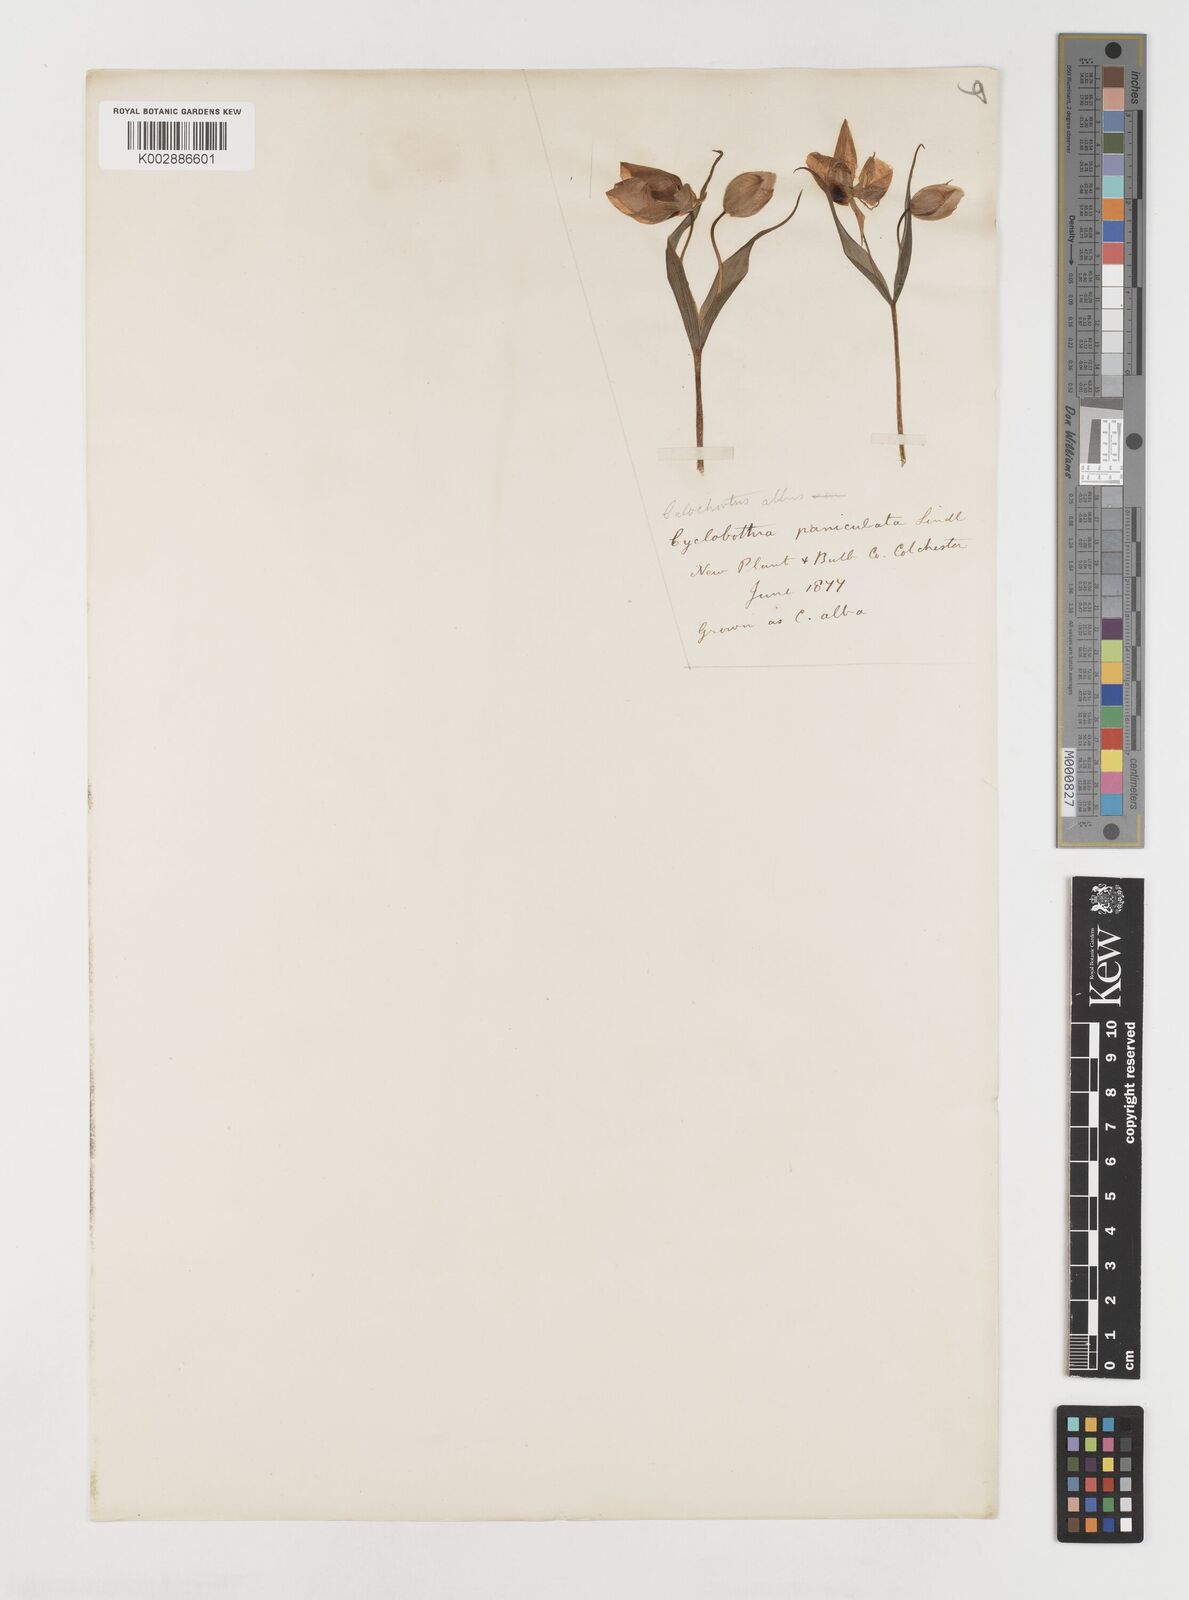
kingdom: Plantae
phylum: Tracheophyta
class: Liliopsida
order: Liliales
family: Liliaceae
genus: Calochortus
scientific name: Calochortus albus
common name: Fairy-lantern
